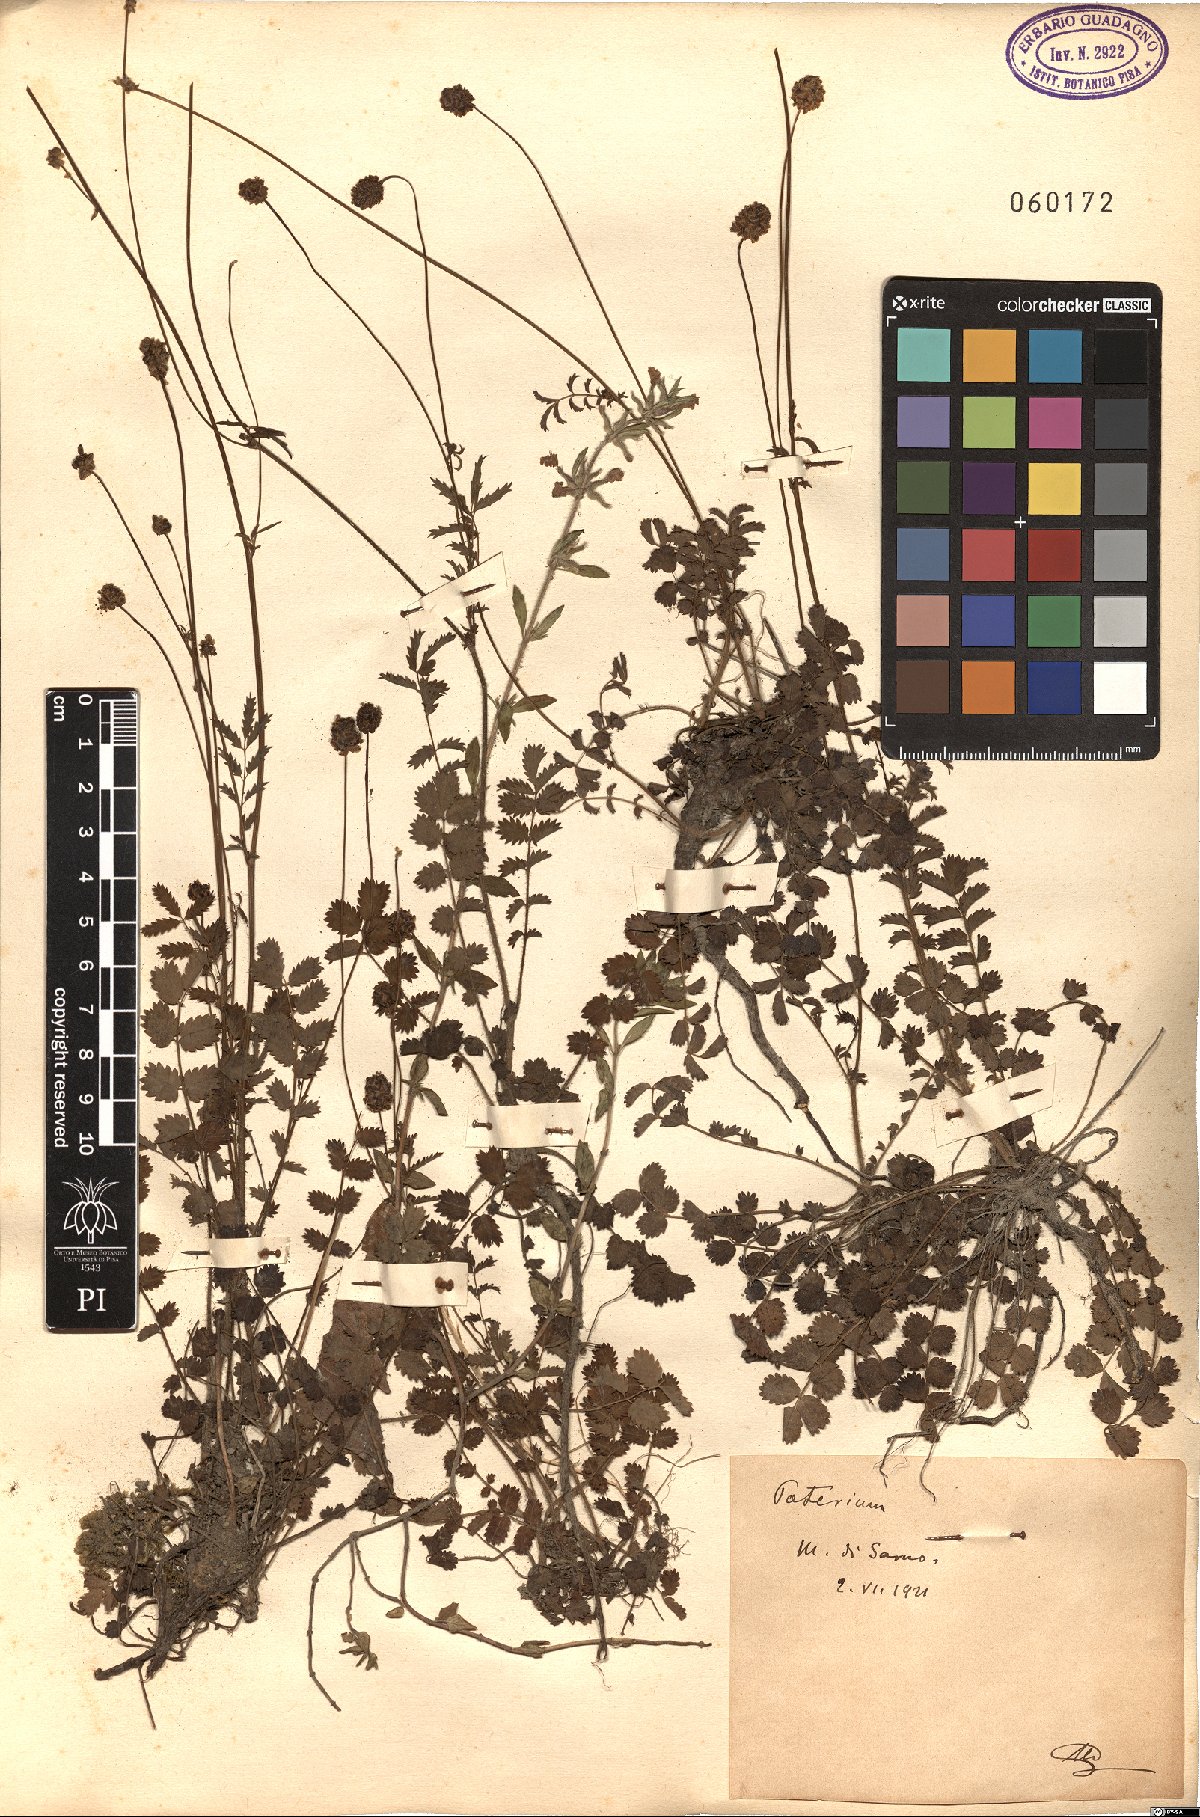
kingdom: Plantae
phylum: Tracheophyta
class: Magnoliopsida
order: Rosales
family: Rosaceae
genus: Poterium
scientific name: Poterium
